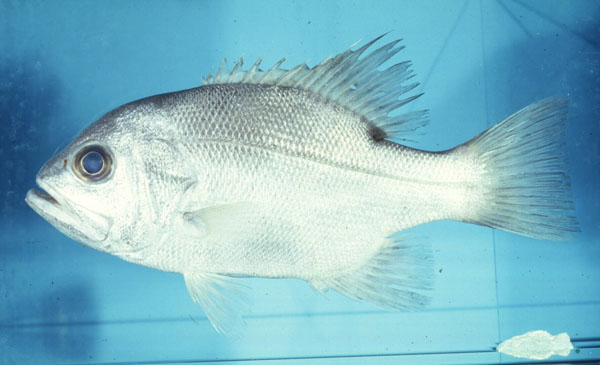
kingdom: Animalia
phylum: Chordata
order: Perciformes
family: Glaucosomatidae
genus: Glaucosoma
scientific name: Glaucosoma hebraicum
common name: West australian dhufish
